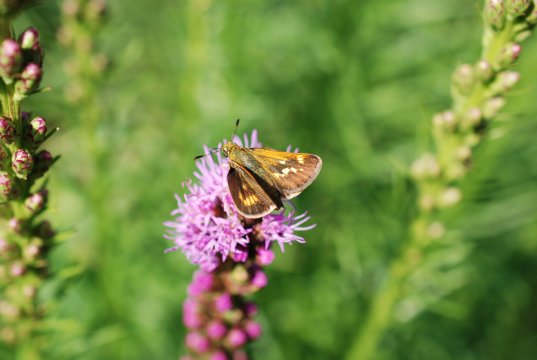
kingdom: Animalia
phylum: Arthropoda
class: Insecta
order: Lepidoptera
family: Hesperiidae
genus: Polites
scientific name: Polites
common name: Long Dash Skipper
